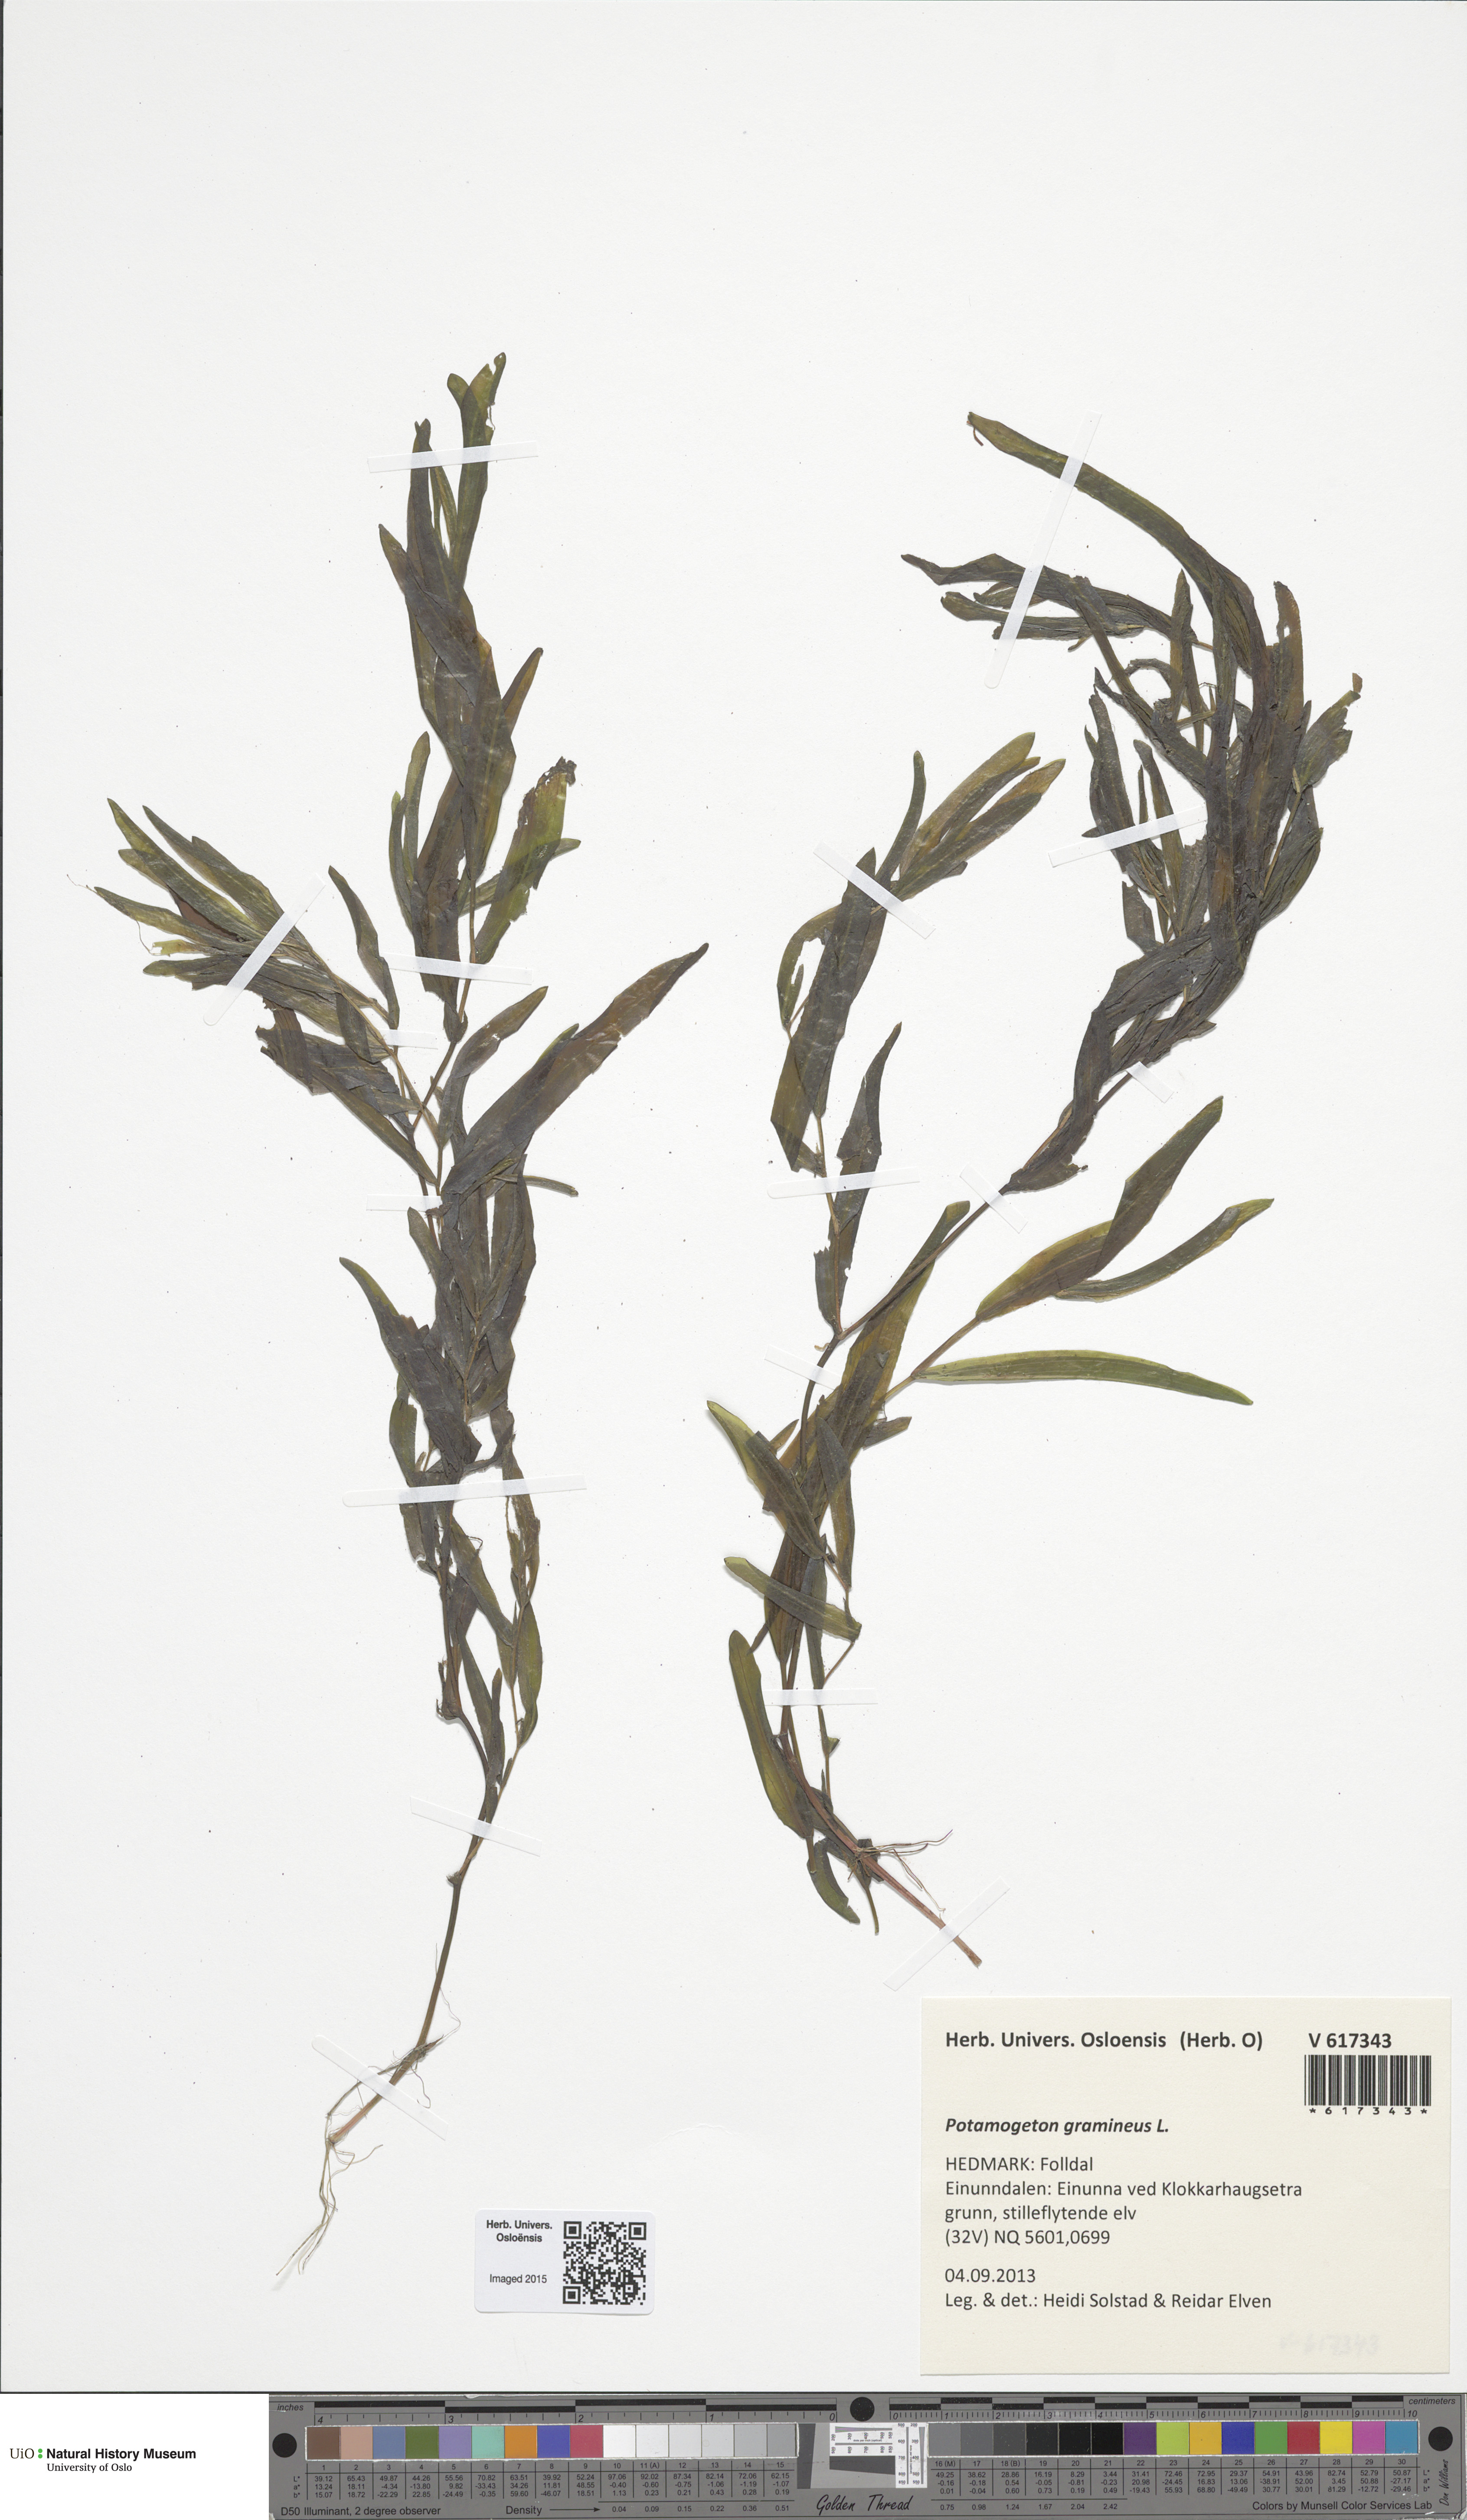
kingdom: Plantae
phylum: Tracheophyta
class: Liliopsida
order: Alismatales
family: Potamogetonaceae
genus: Potamogeton
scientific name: Potamogeton nericius
